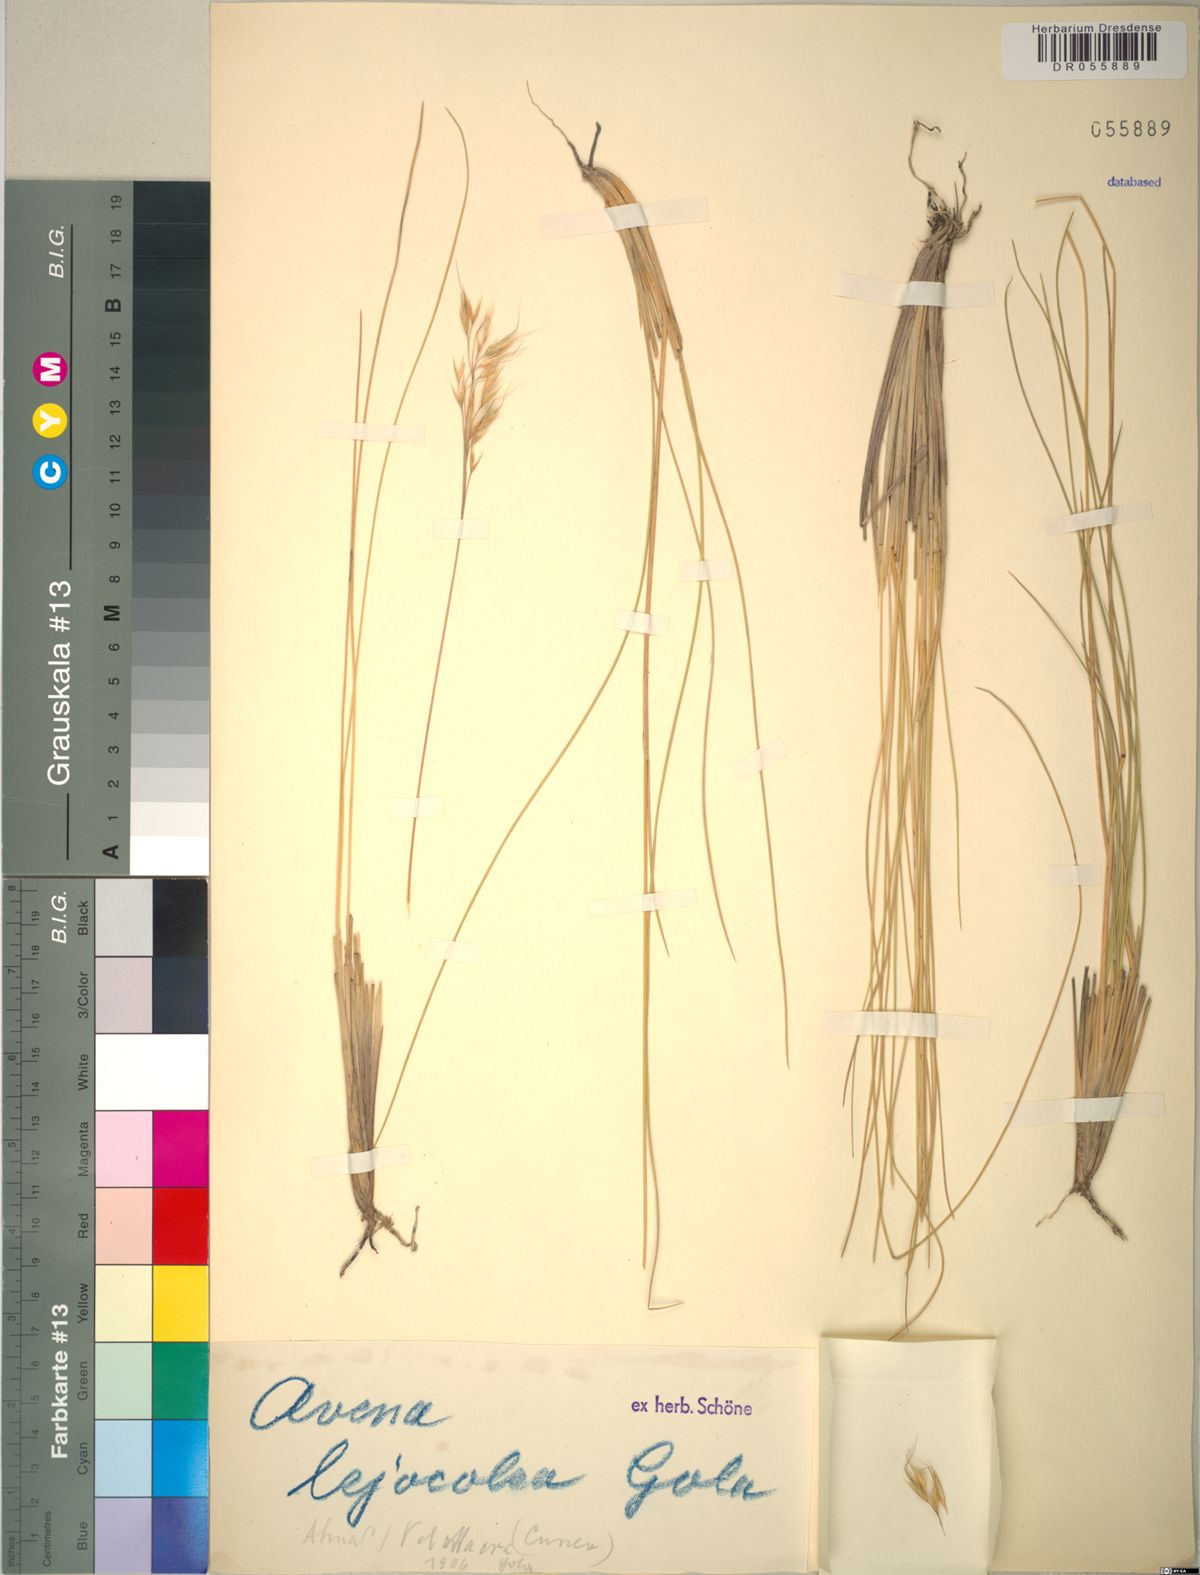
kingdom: Plantae
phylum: Tracheophyta
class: Liliopsida
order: Poales
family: Poaceae
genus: Helictotrichon
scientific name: Helictotrichon setaceum
